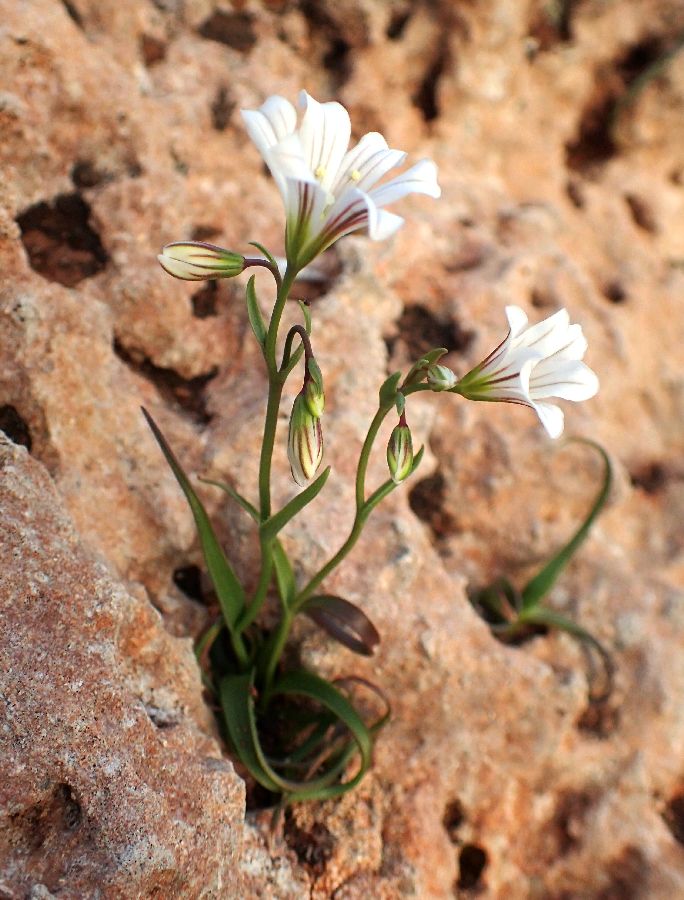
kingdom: Plantae
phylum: Tracheophyta
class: Liliopsida
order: Liliales
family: Liliaceae
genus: Gagea
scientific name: Gagea graeca
